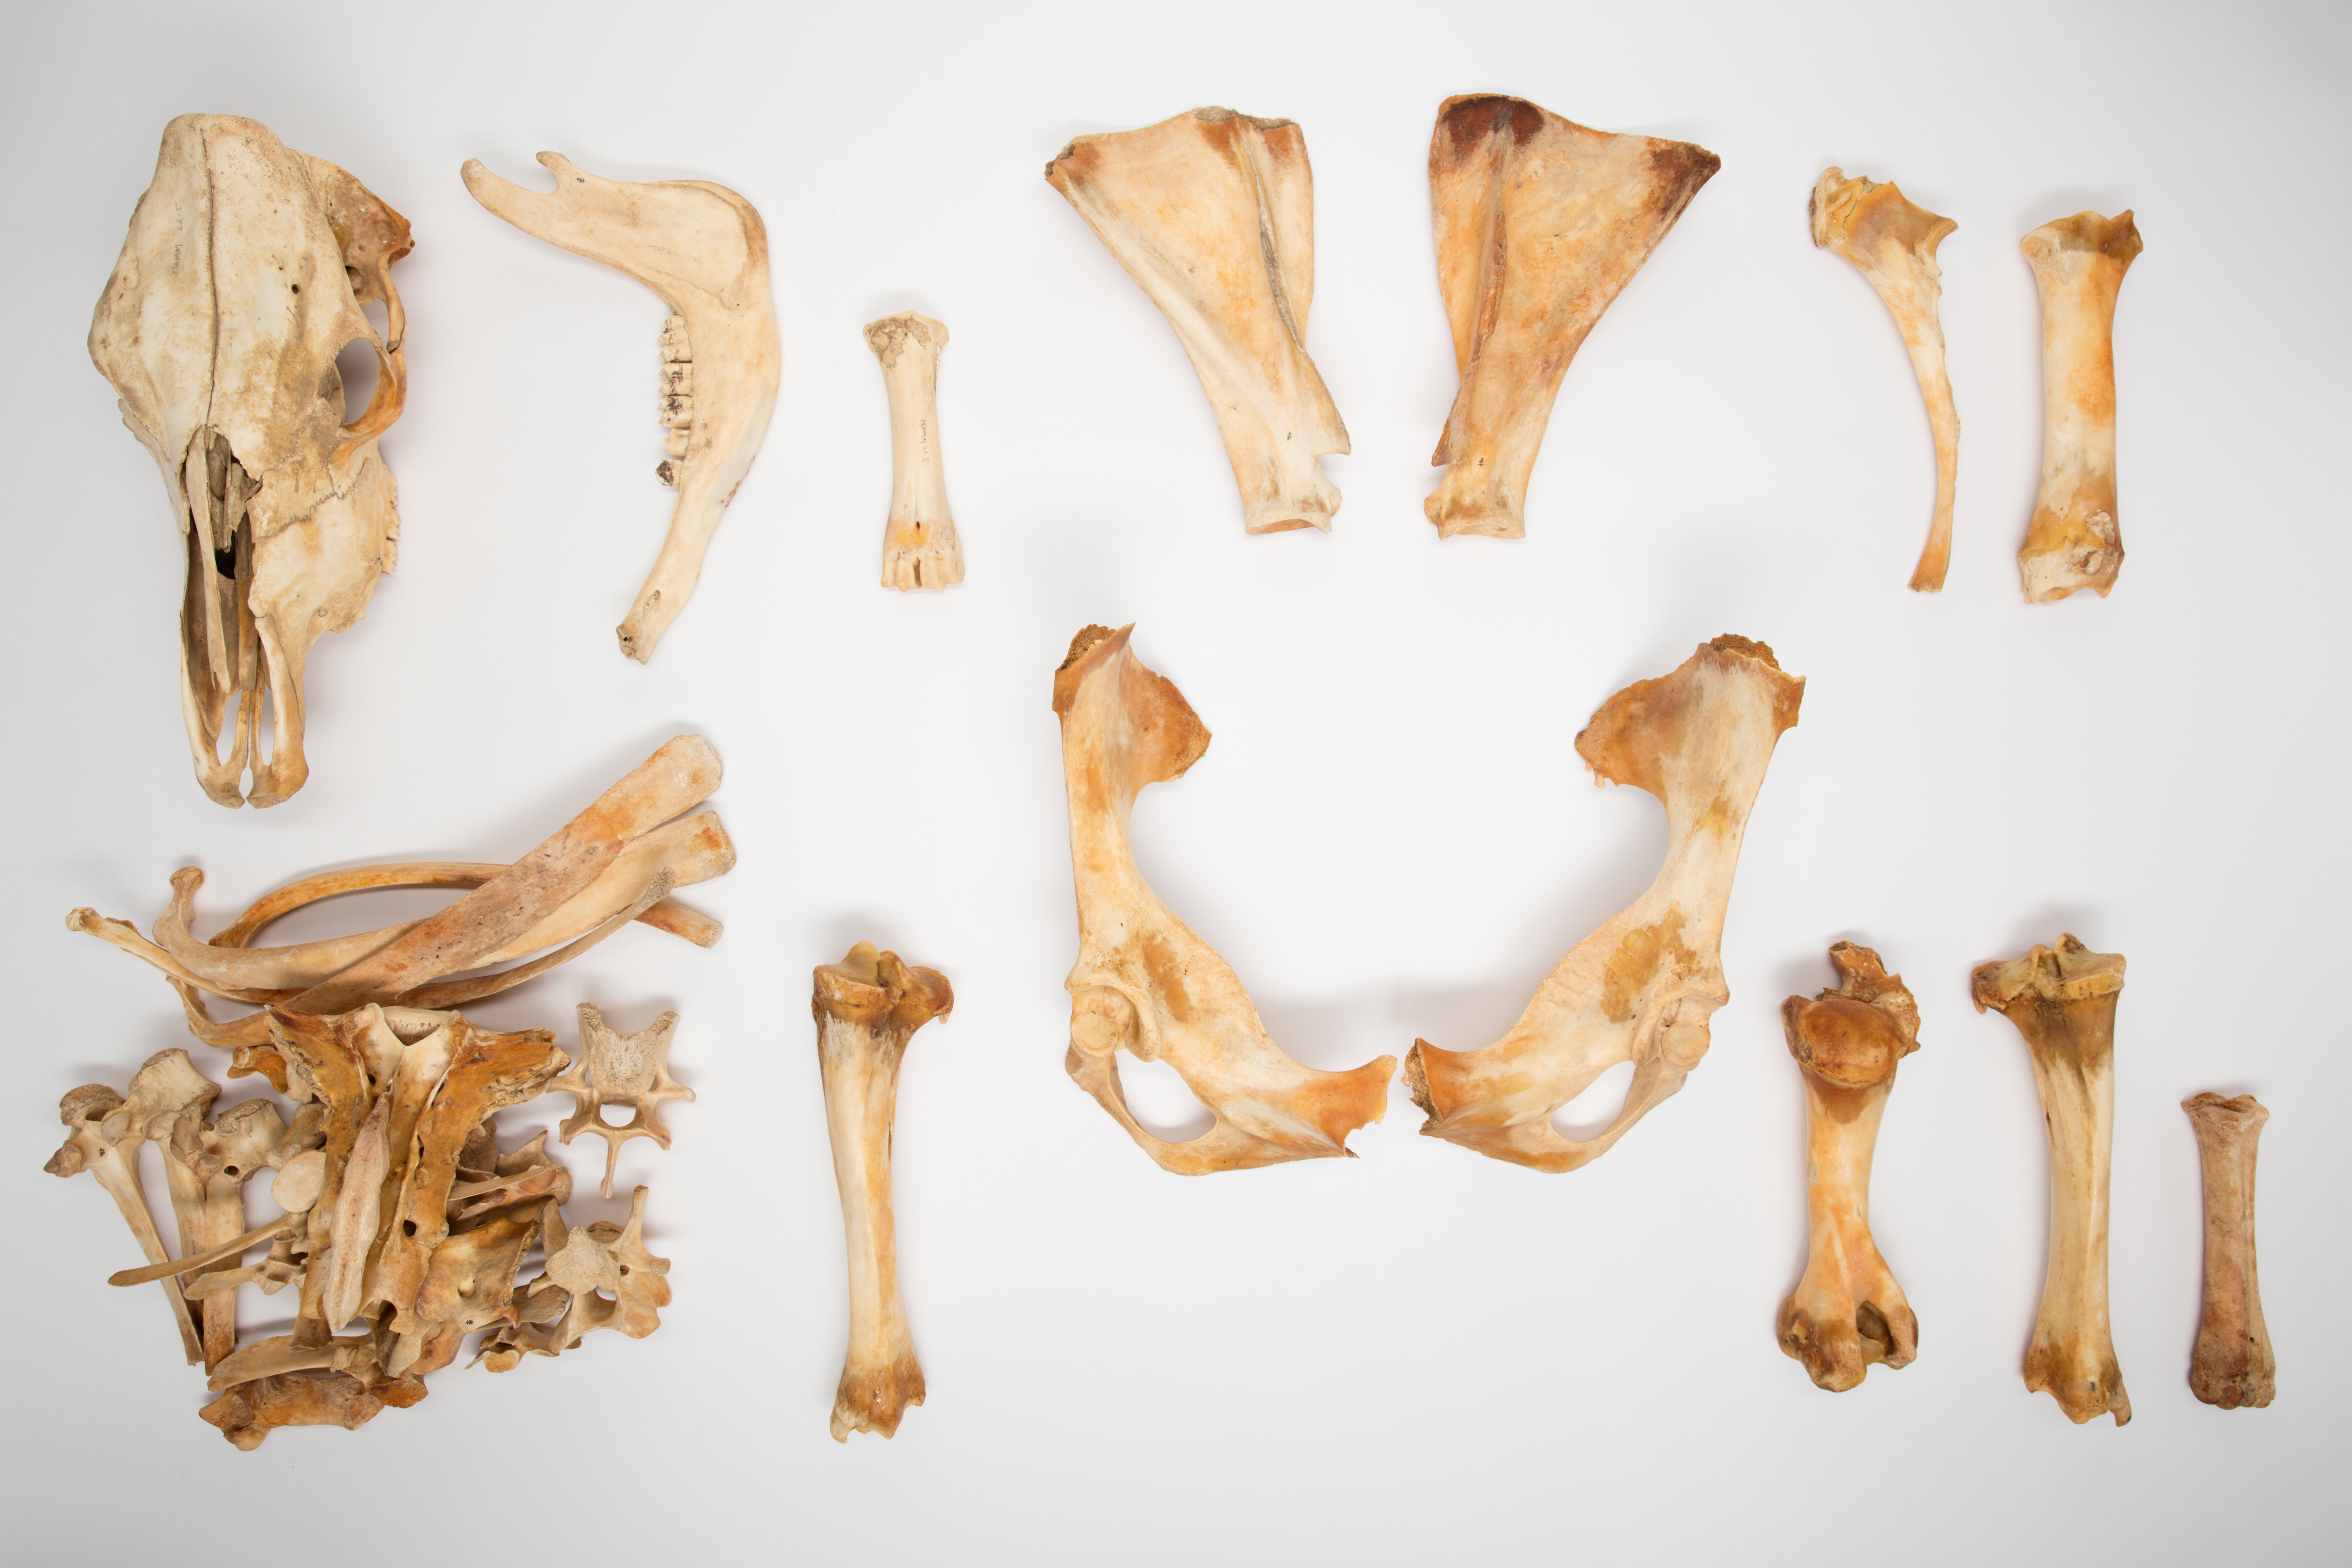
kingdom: Animalia
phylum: Chordata
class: Mammalia
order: Artiodactyla
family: Bovidae
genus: Bos
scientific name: Bos taurus
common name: Domesticated cattle
